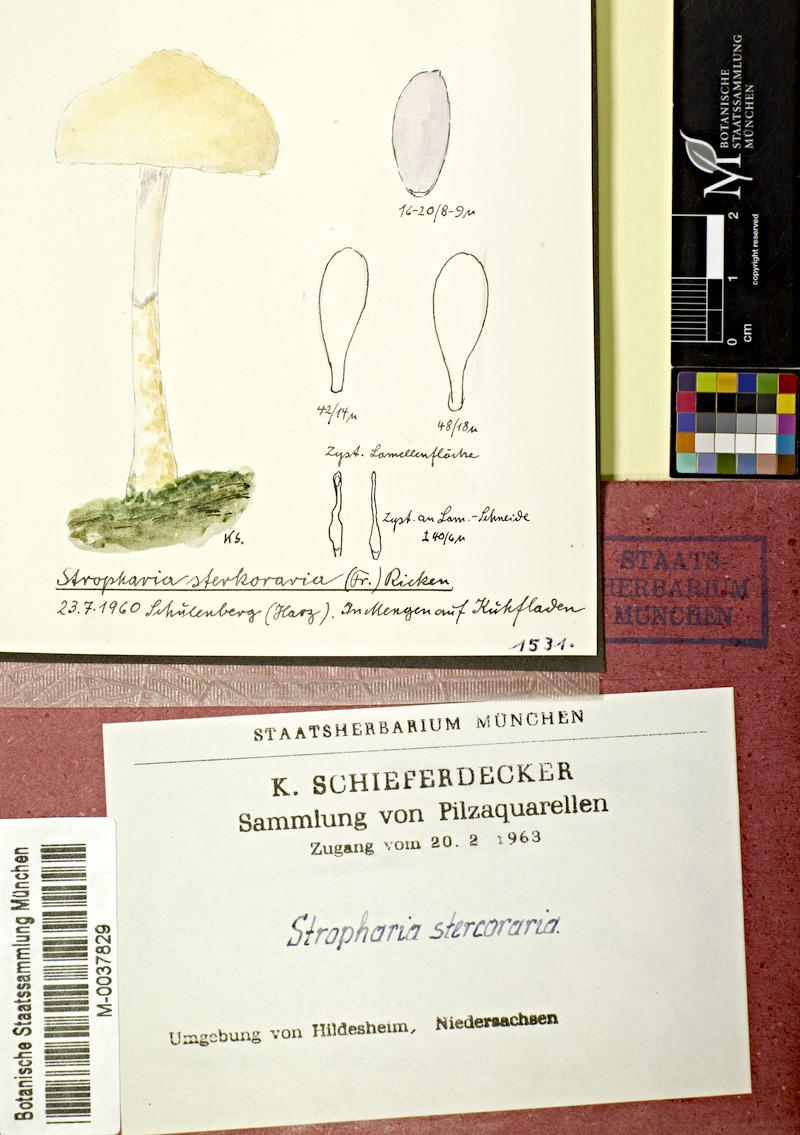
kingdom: Fungi
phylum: Basidiomycota
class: Agaricomycetes
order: Agaricales
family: Strophariaceae
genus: Protostropharia
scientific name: Protostropharia semiglobata
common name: Dung roundhead
